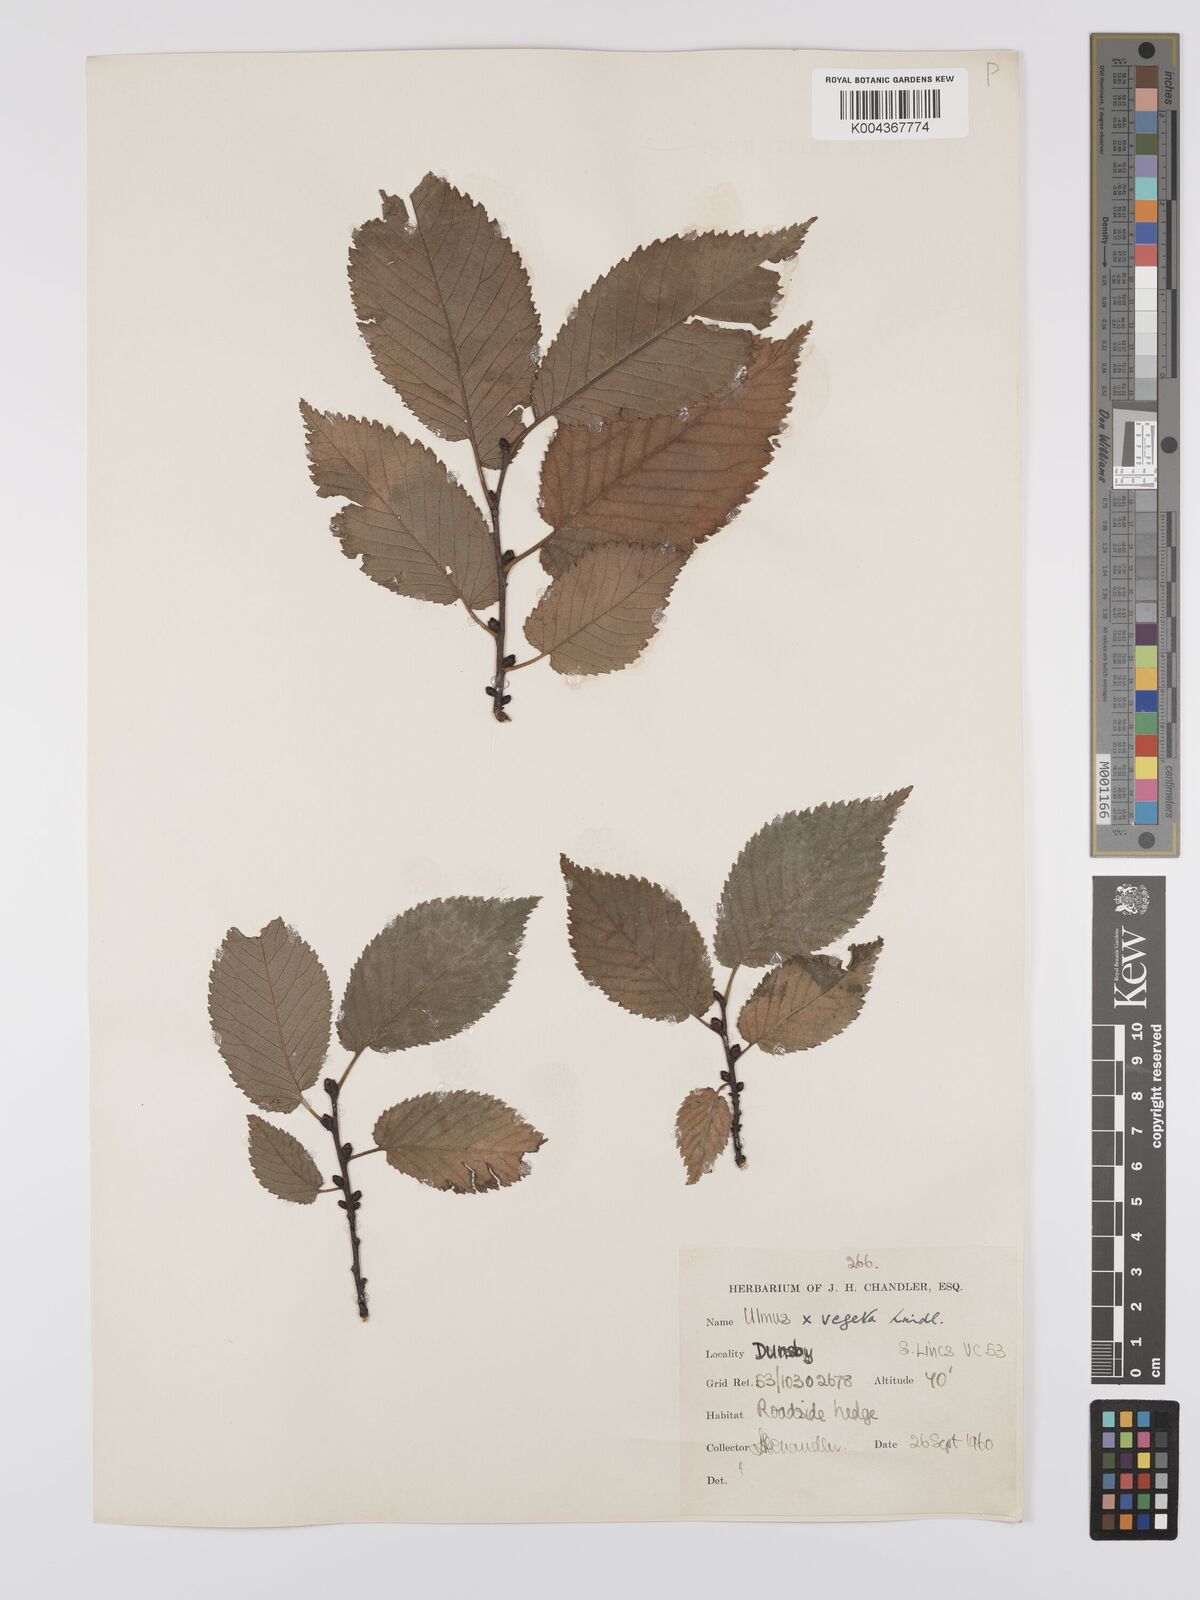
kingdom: Plantae
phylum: Tracheophyta
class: Magnoliopsida
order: Rosales
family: Ulmaceae
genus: Ulmus
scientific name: Ulmus
